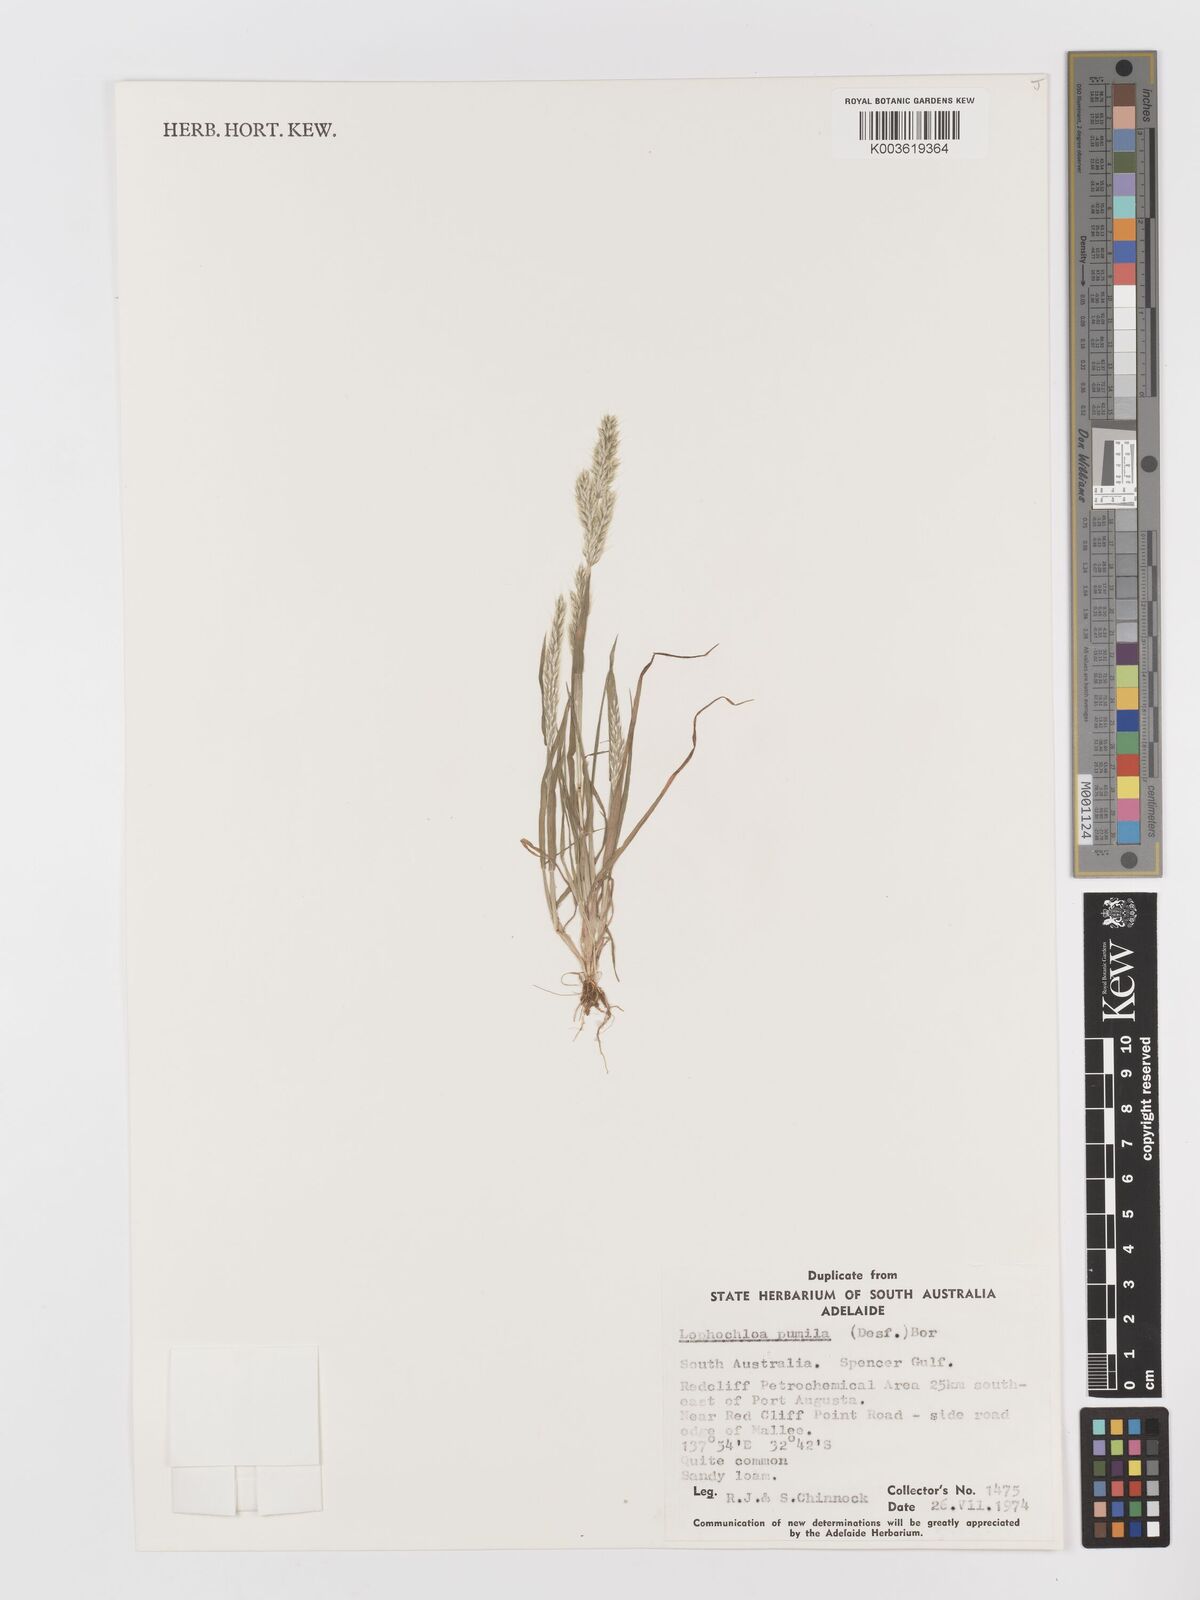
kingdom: Plantae
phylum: Tracheophyta
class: Liliopsida
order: Poales
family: Poaceae
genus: Rostraria
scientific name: Rostraria pumila
